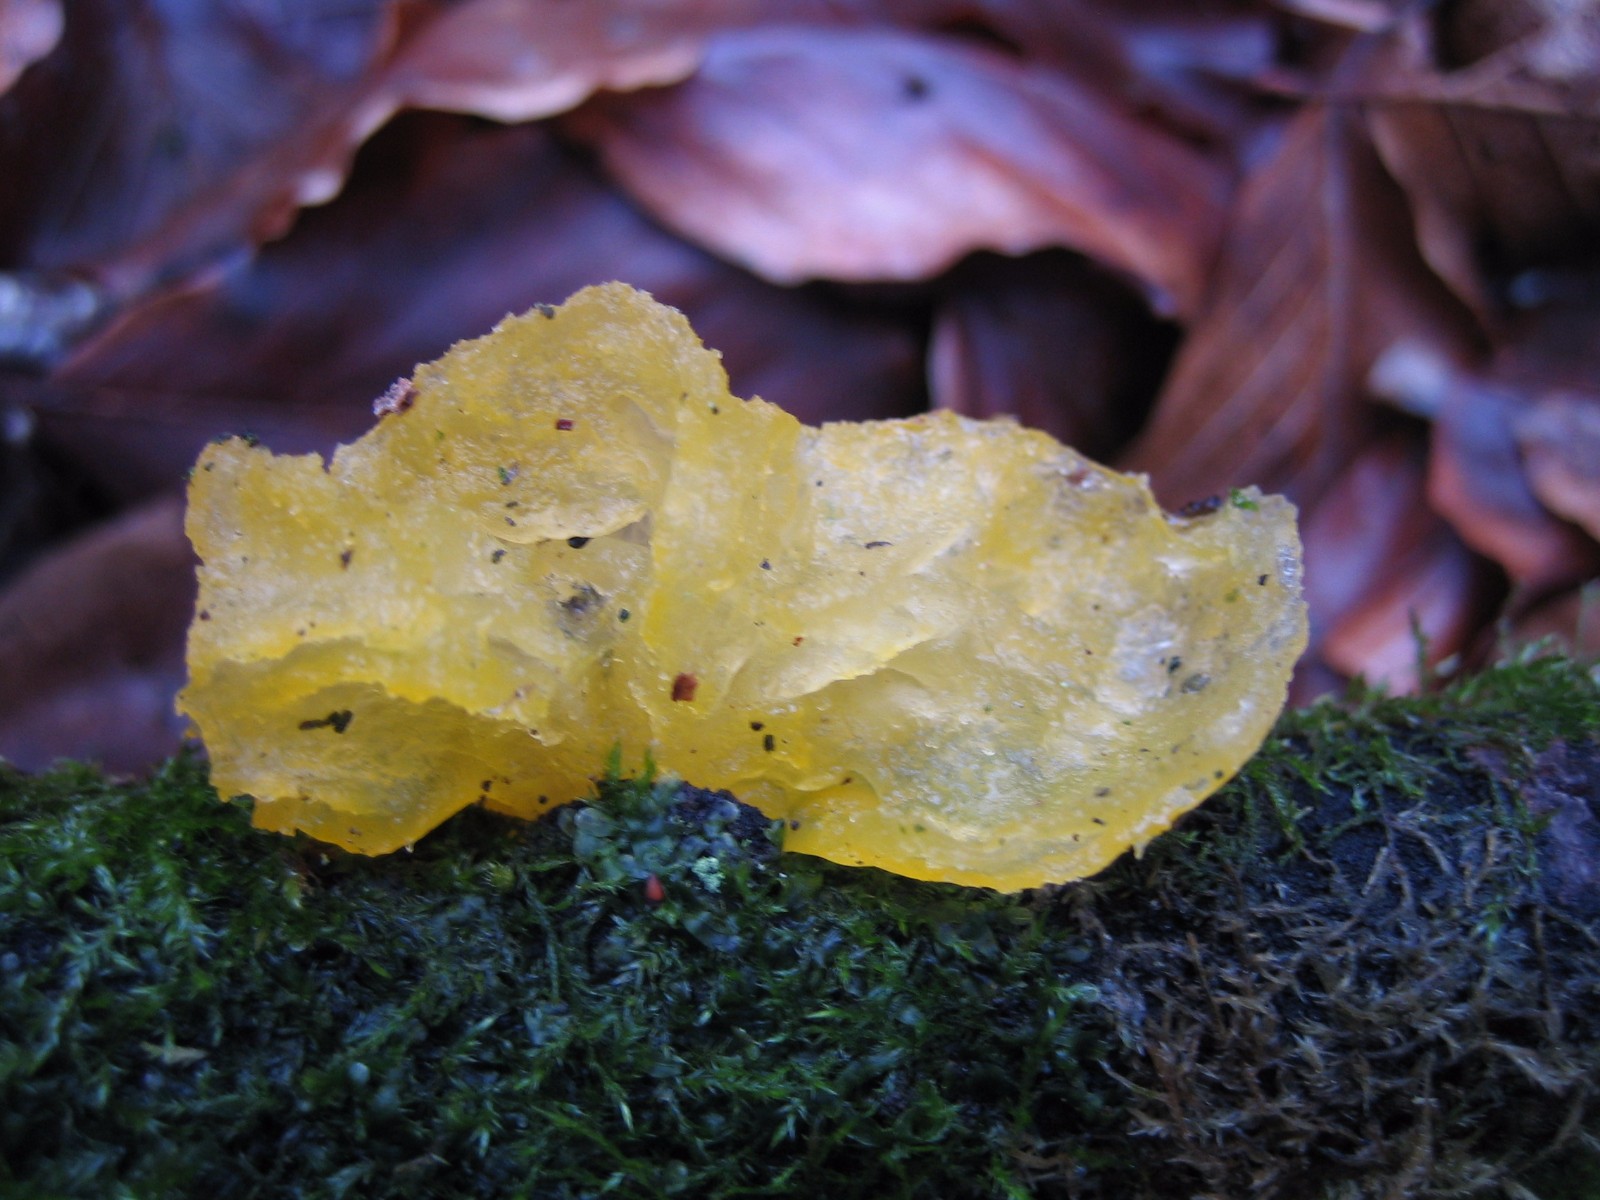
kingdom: Fungi
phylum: Basidiomycota
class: Tremellomycetes
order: Tremellales
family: Tremellaceae
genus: Tremella
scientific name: Tremella mesenterica
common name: gul bævresvamp
